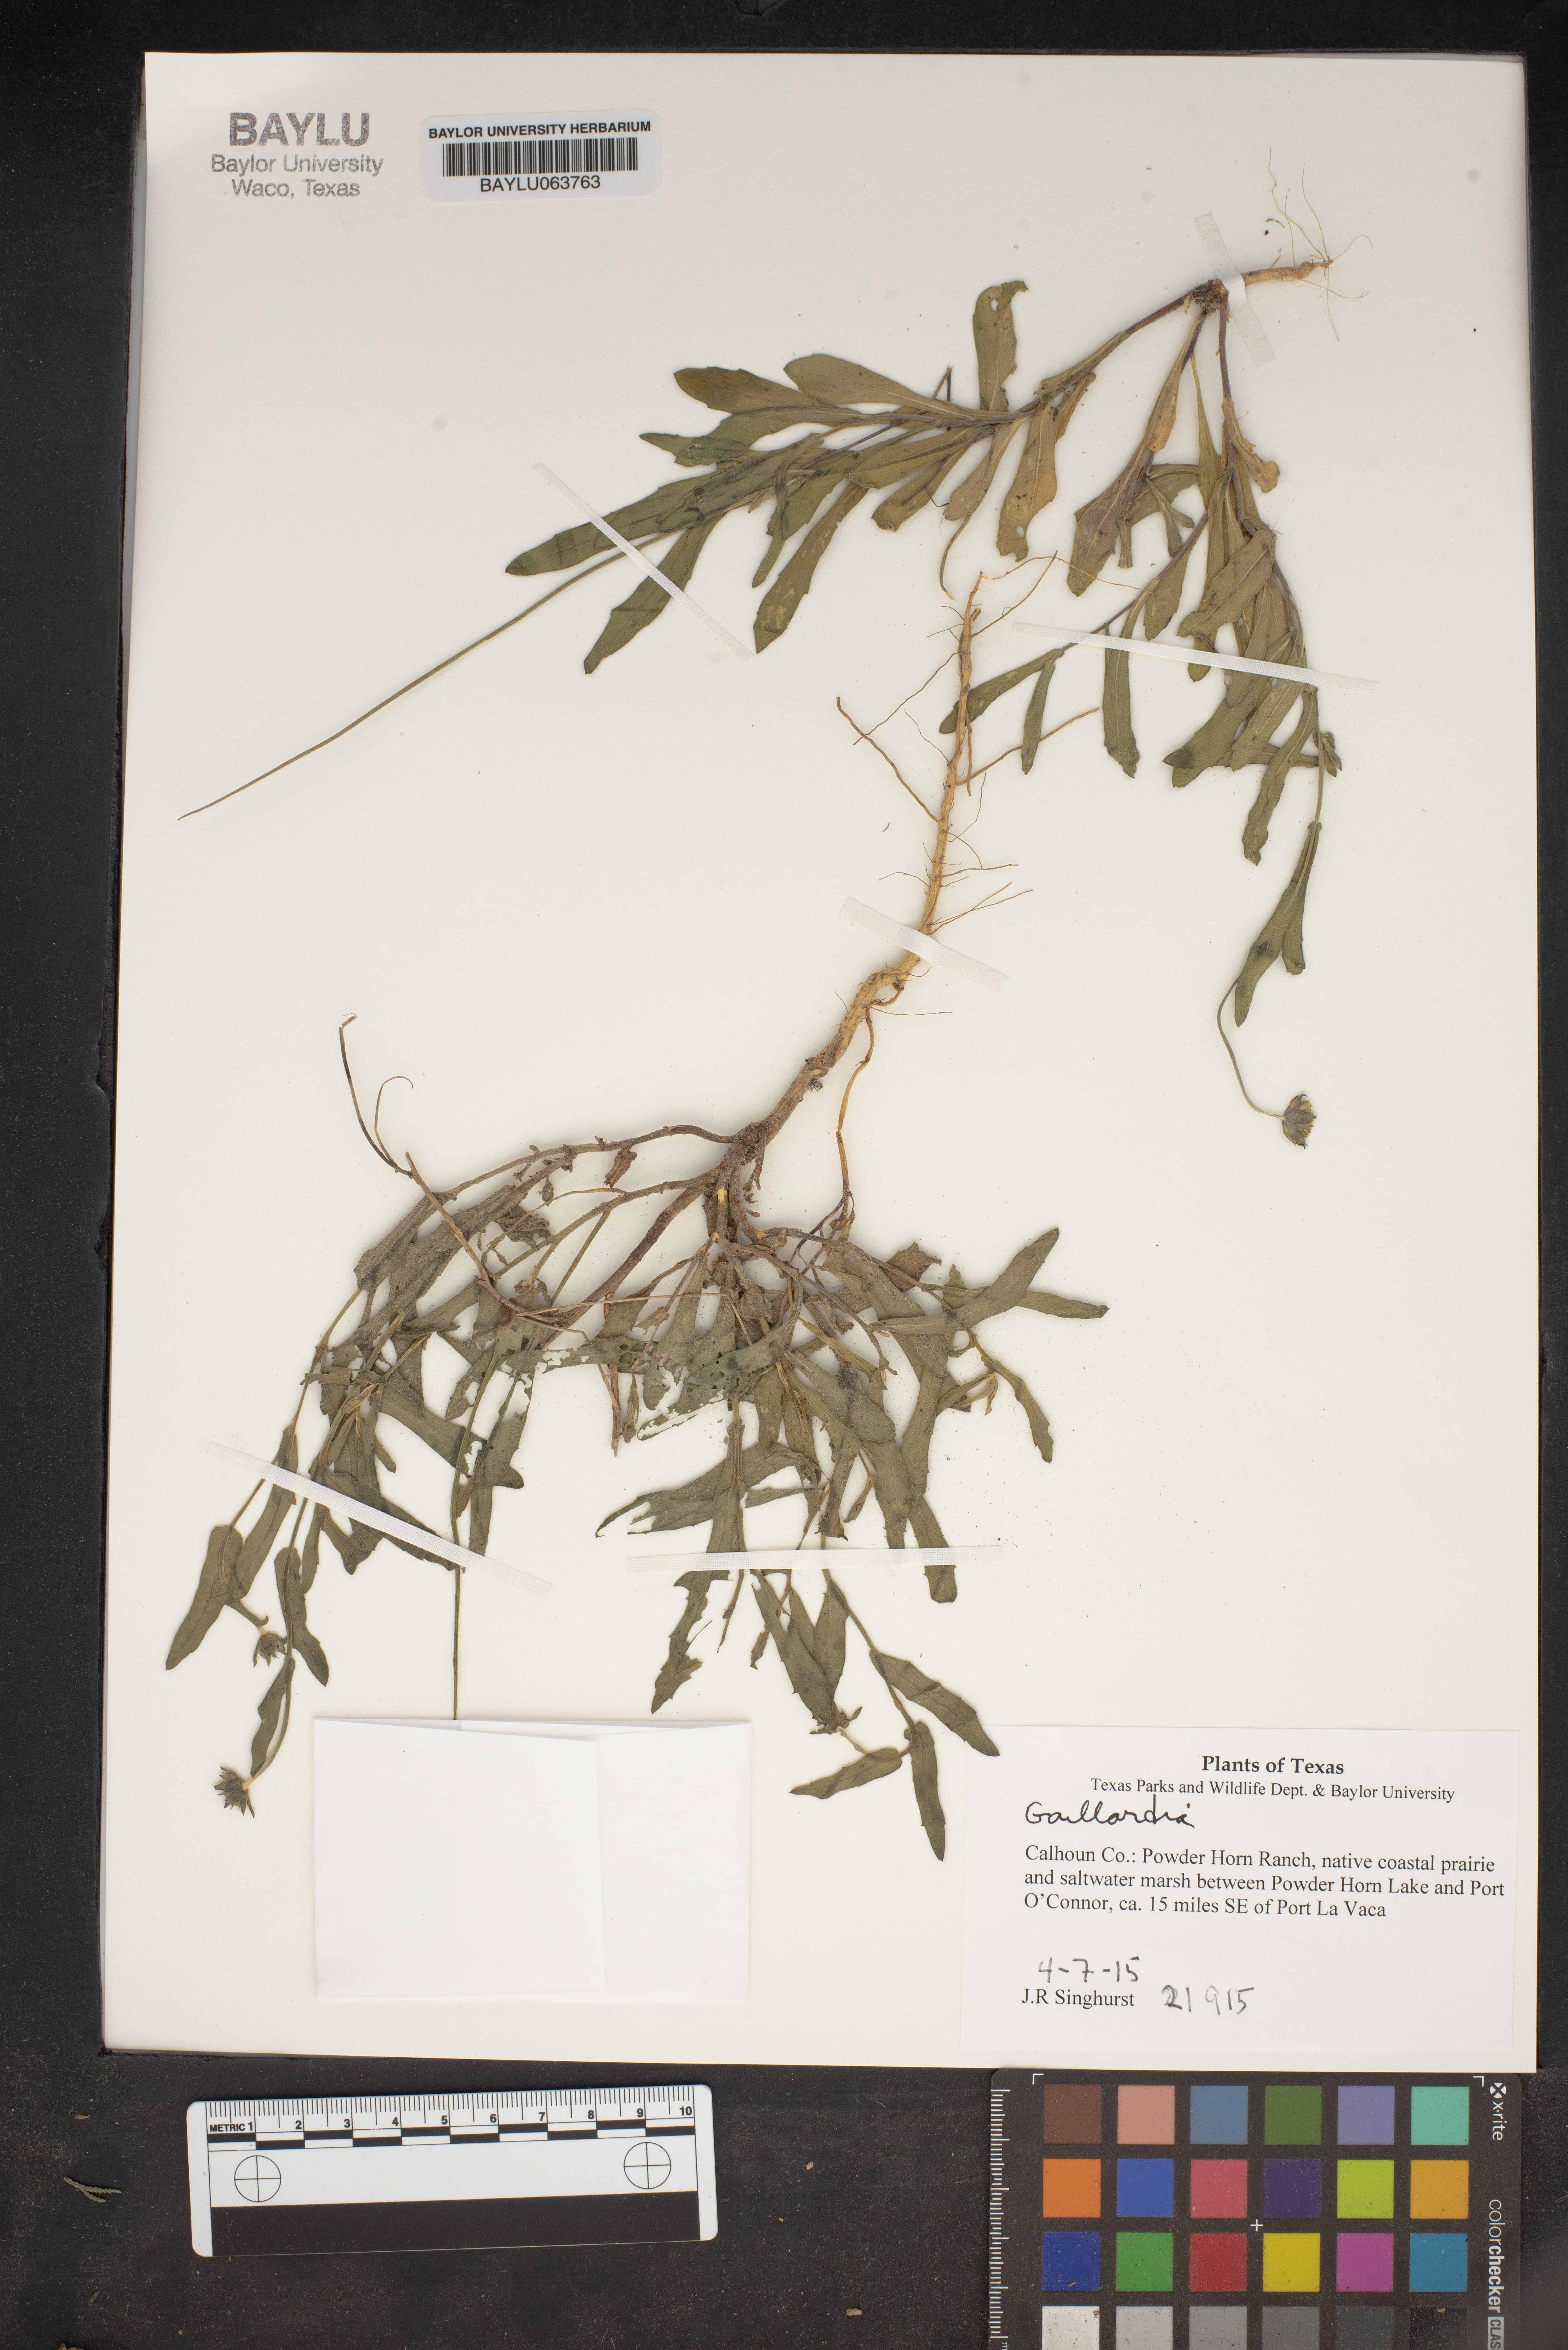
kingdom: Plantae
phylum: Tracheophyta
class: Magnoliopsida
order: Asterales
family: Asteraceae
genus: Gaillardia
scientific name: Gaillardia
